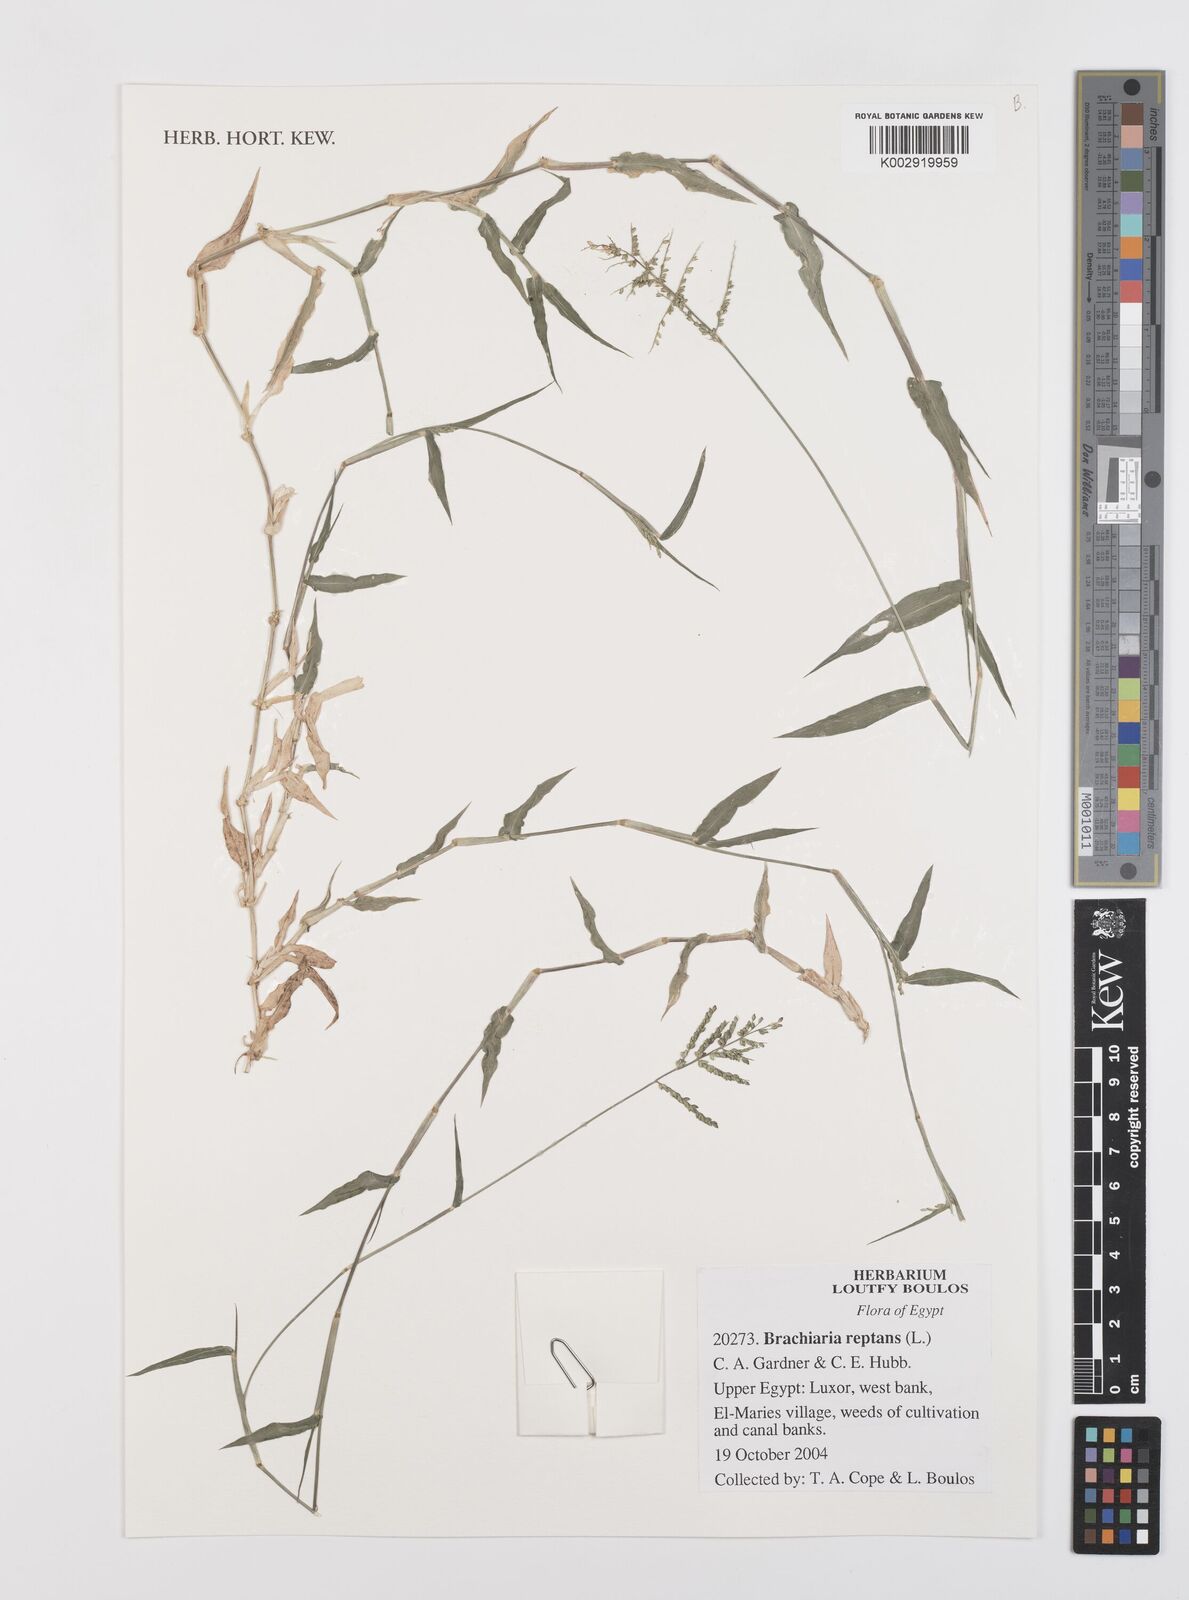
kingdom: Plantae
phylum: Tracheophyta
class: Liliopsida
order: Poales
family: Poaceae
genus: Urochloa
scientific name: Urochloa reptans
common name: Sprawling signalgrass
